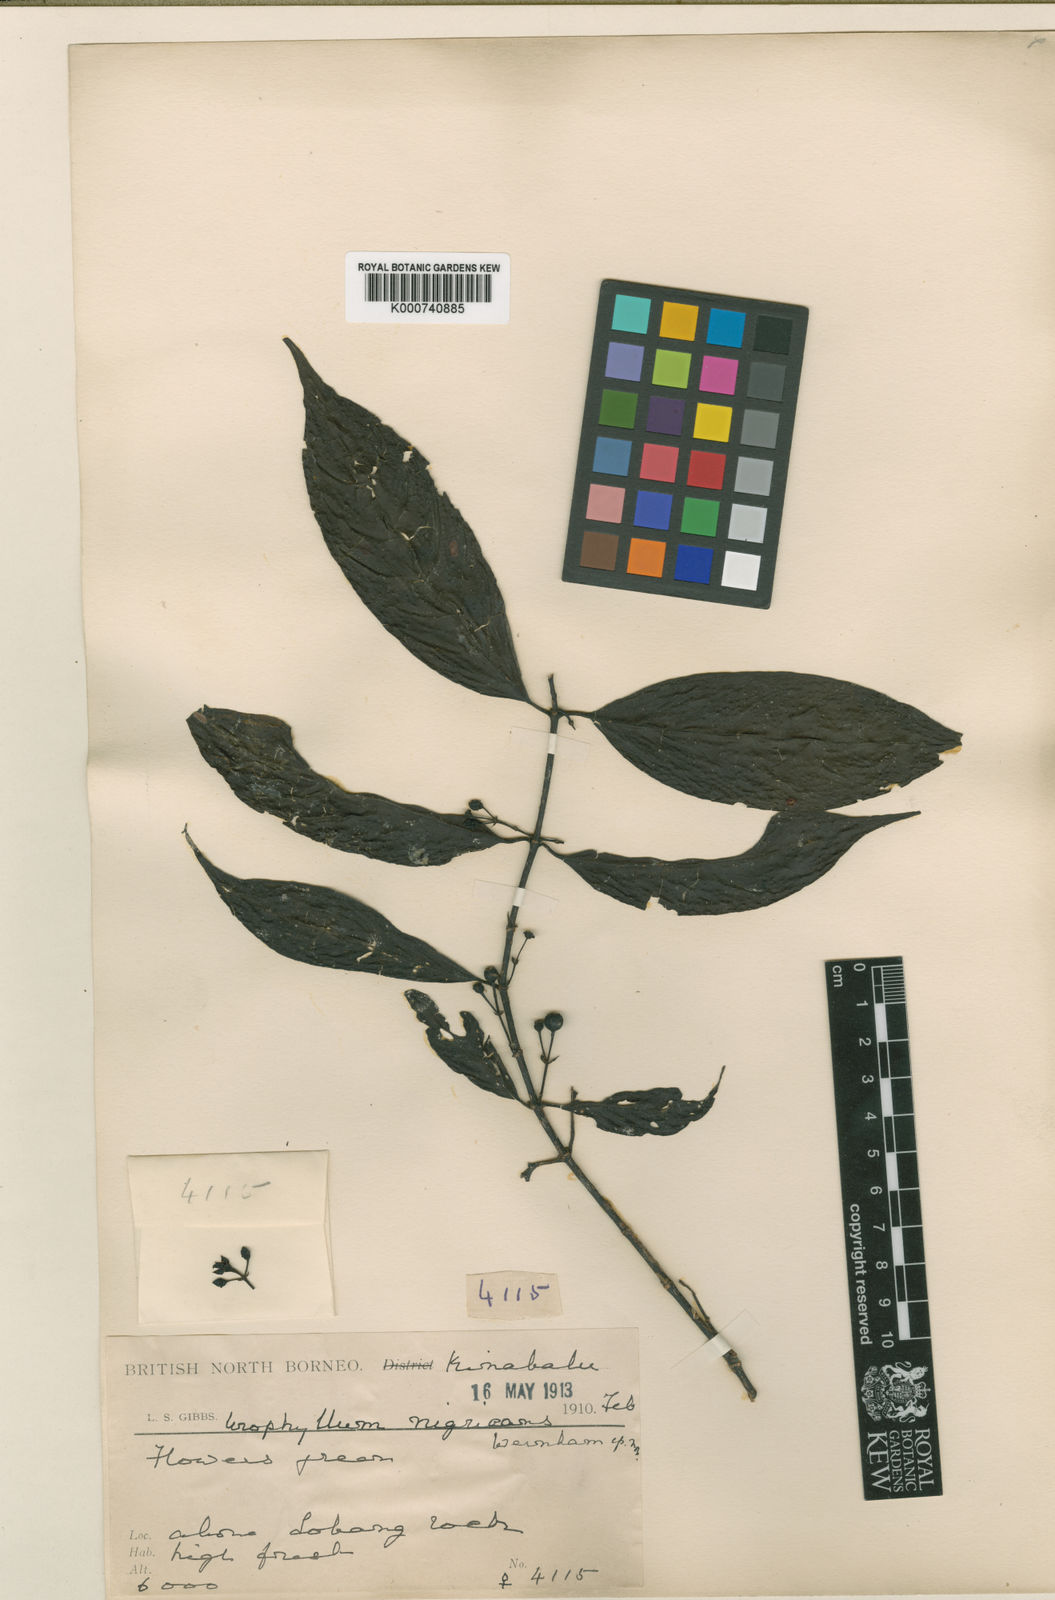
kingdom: Plantae
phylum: Tracheophyta
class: Magnoliopsida
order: Gentianales
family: Rubiaceae
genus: Urophyllum
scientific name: Urophyllum nigricans
